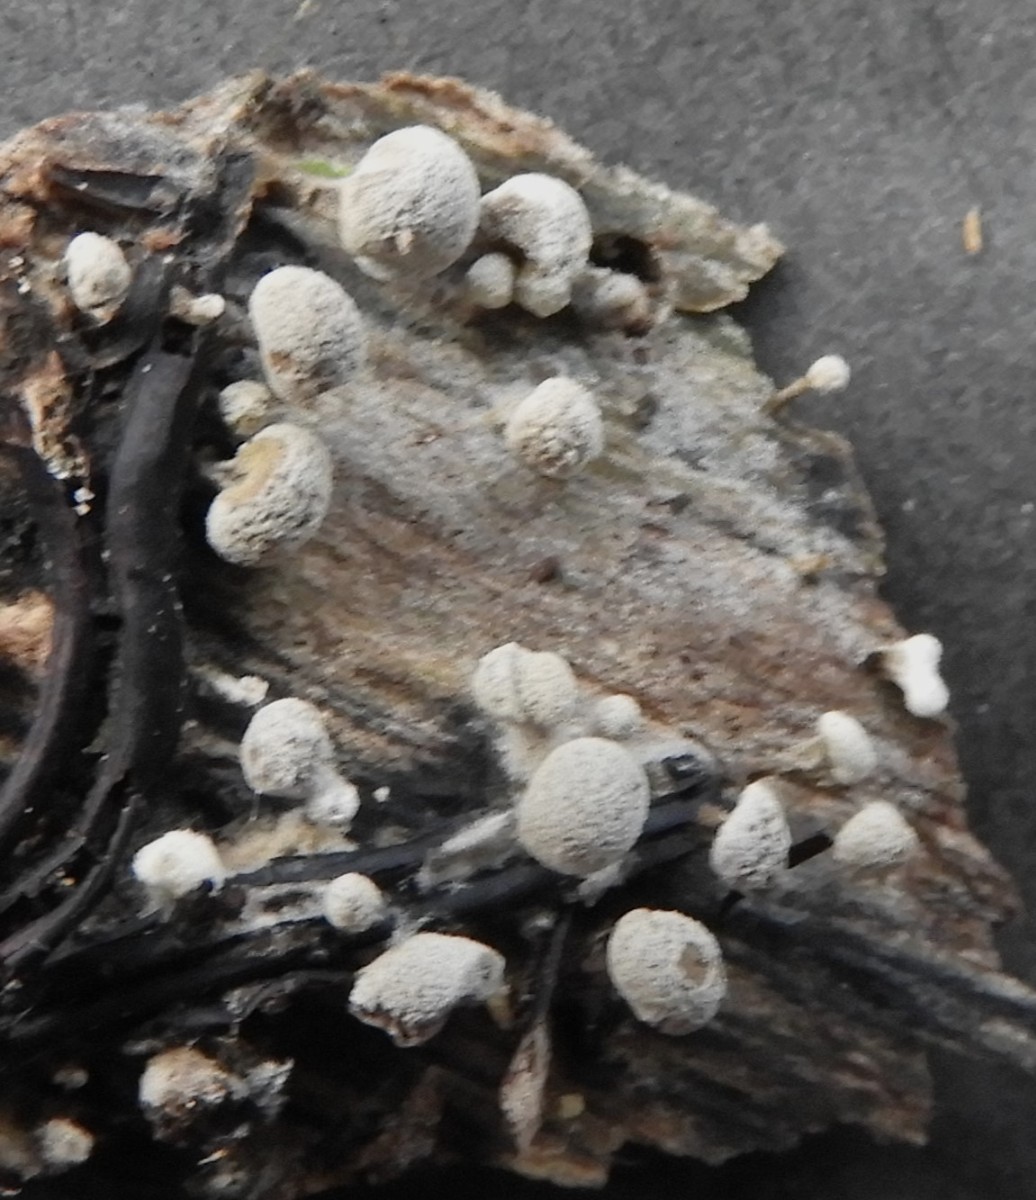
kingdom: Fungi
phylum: Basidiomycota
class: Atractiellomycetes
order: Atractiellales
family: Phleogenaceae
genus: Phleogena
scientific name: Phleogena faginea
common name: pudderkølle
